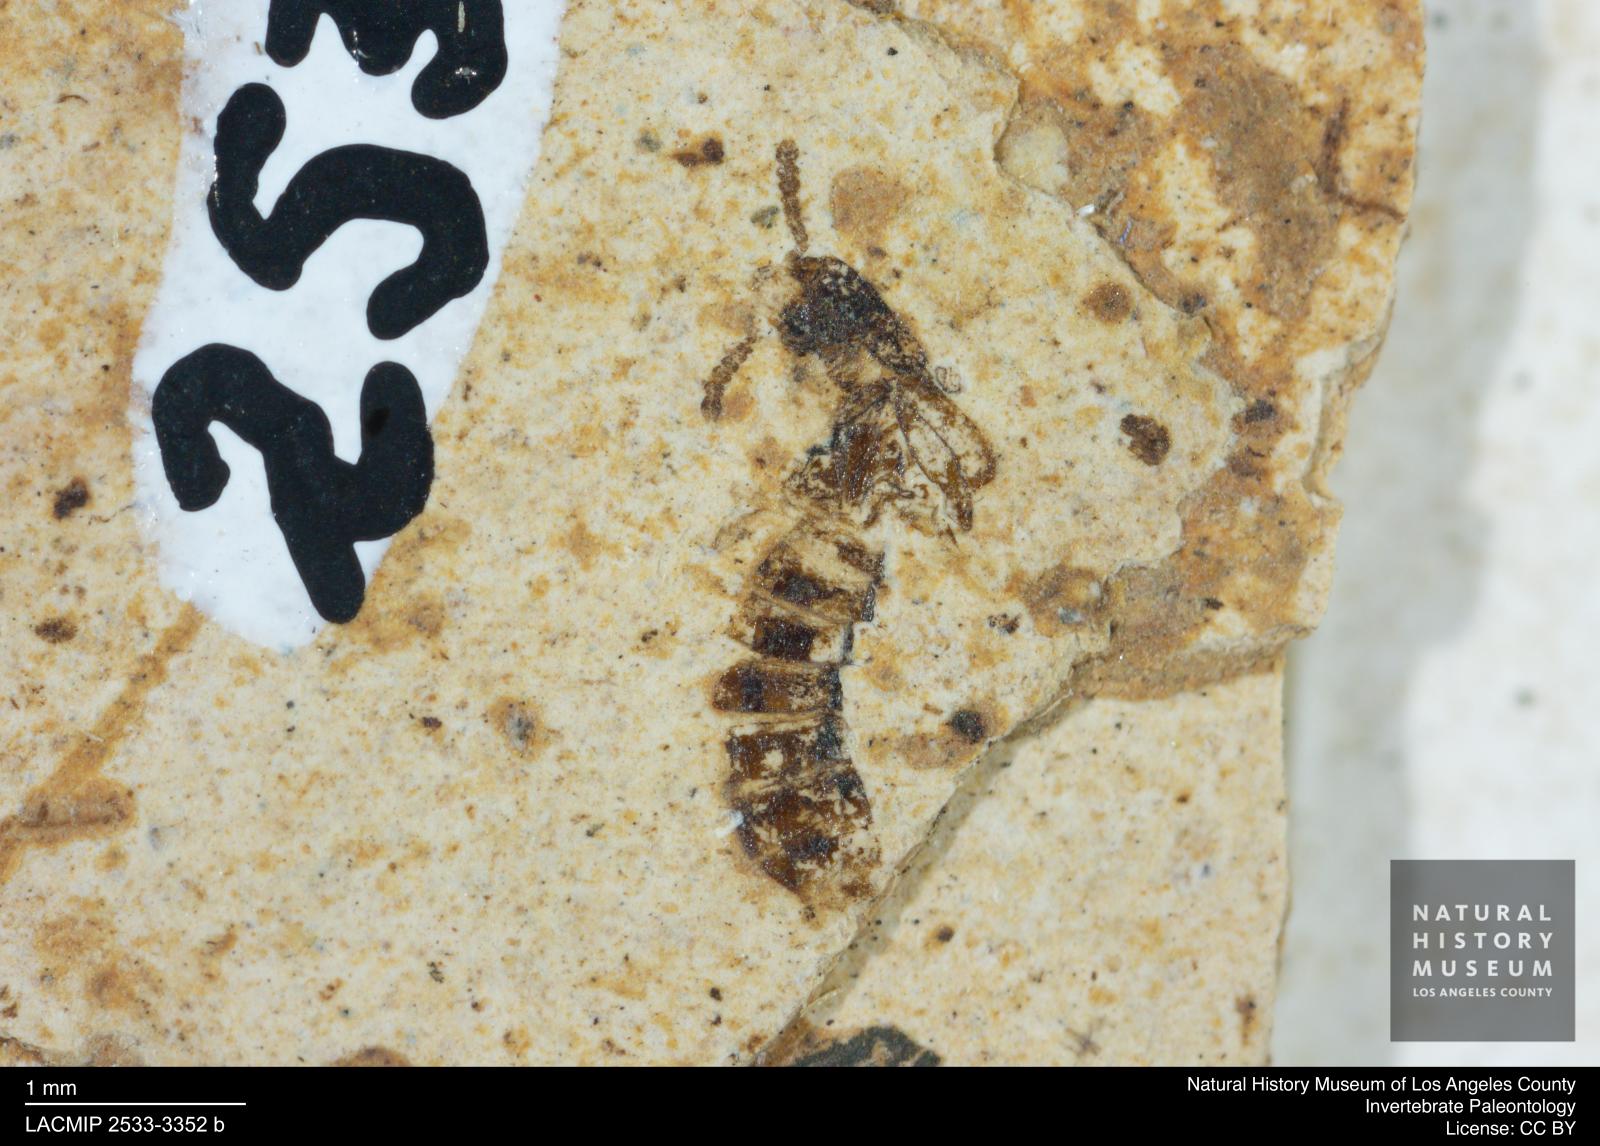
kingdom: Animalia
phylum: Arthropoda
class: Insecta
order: Coleoptera
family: Staphylinidae
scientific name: Staphylinidae
